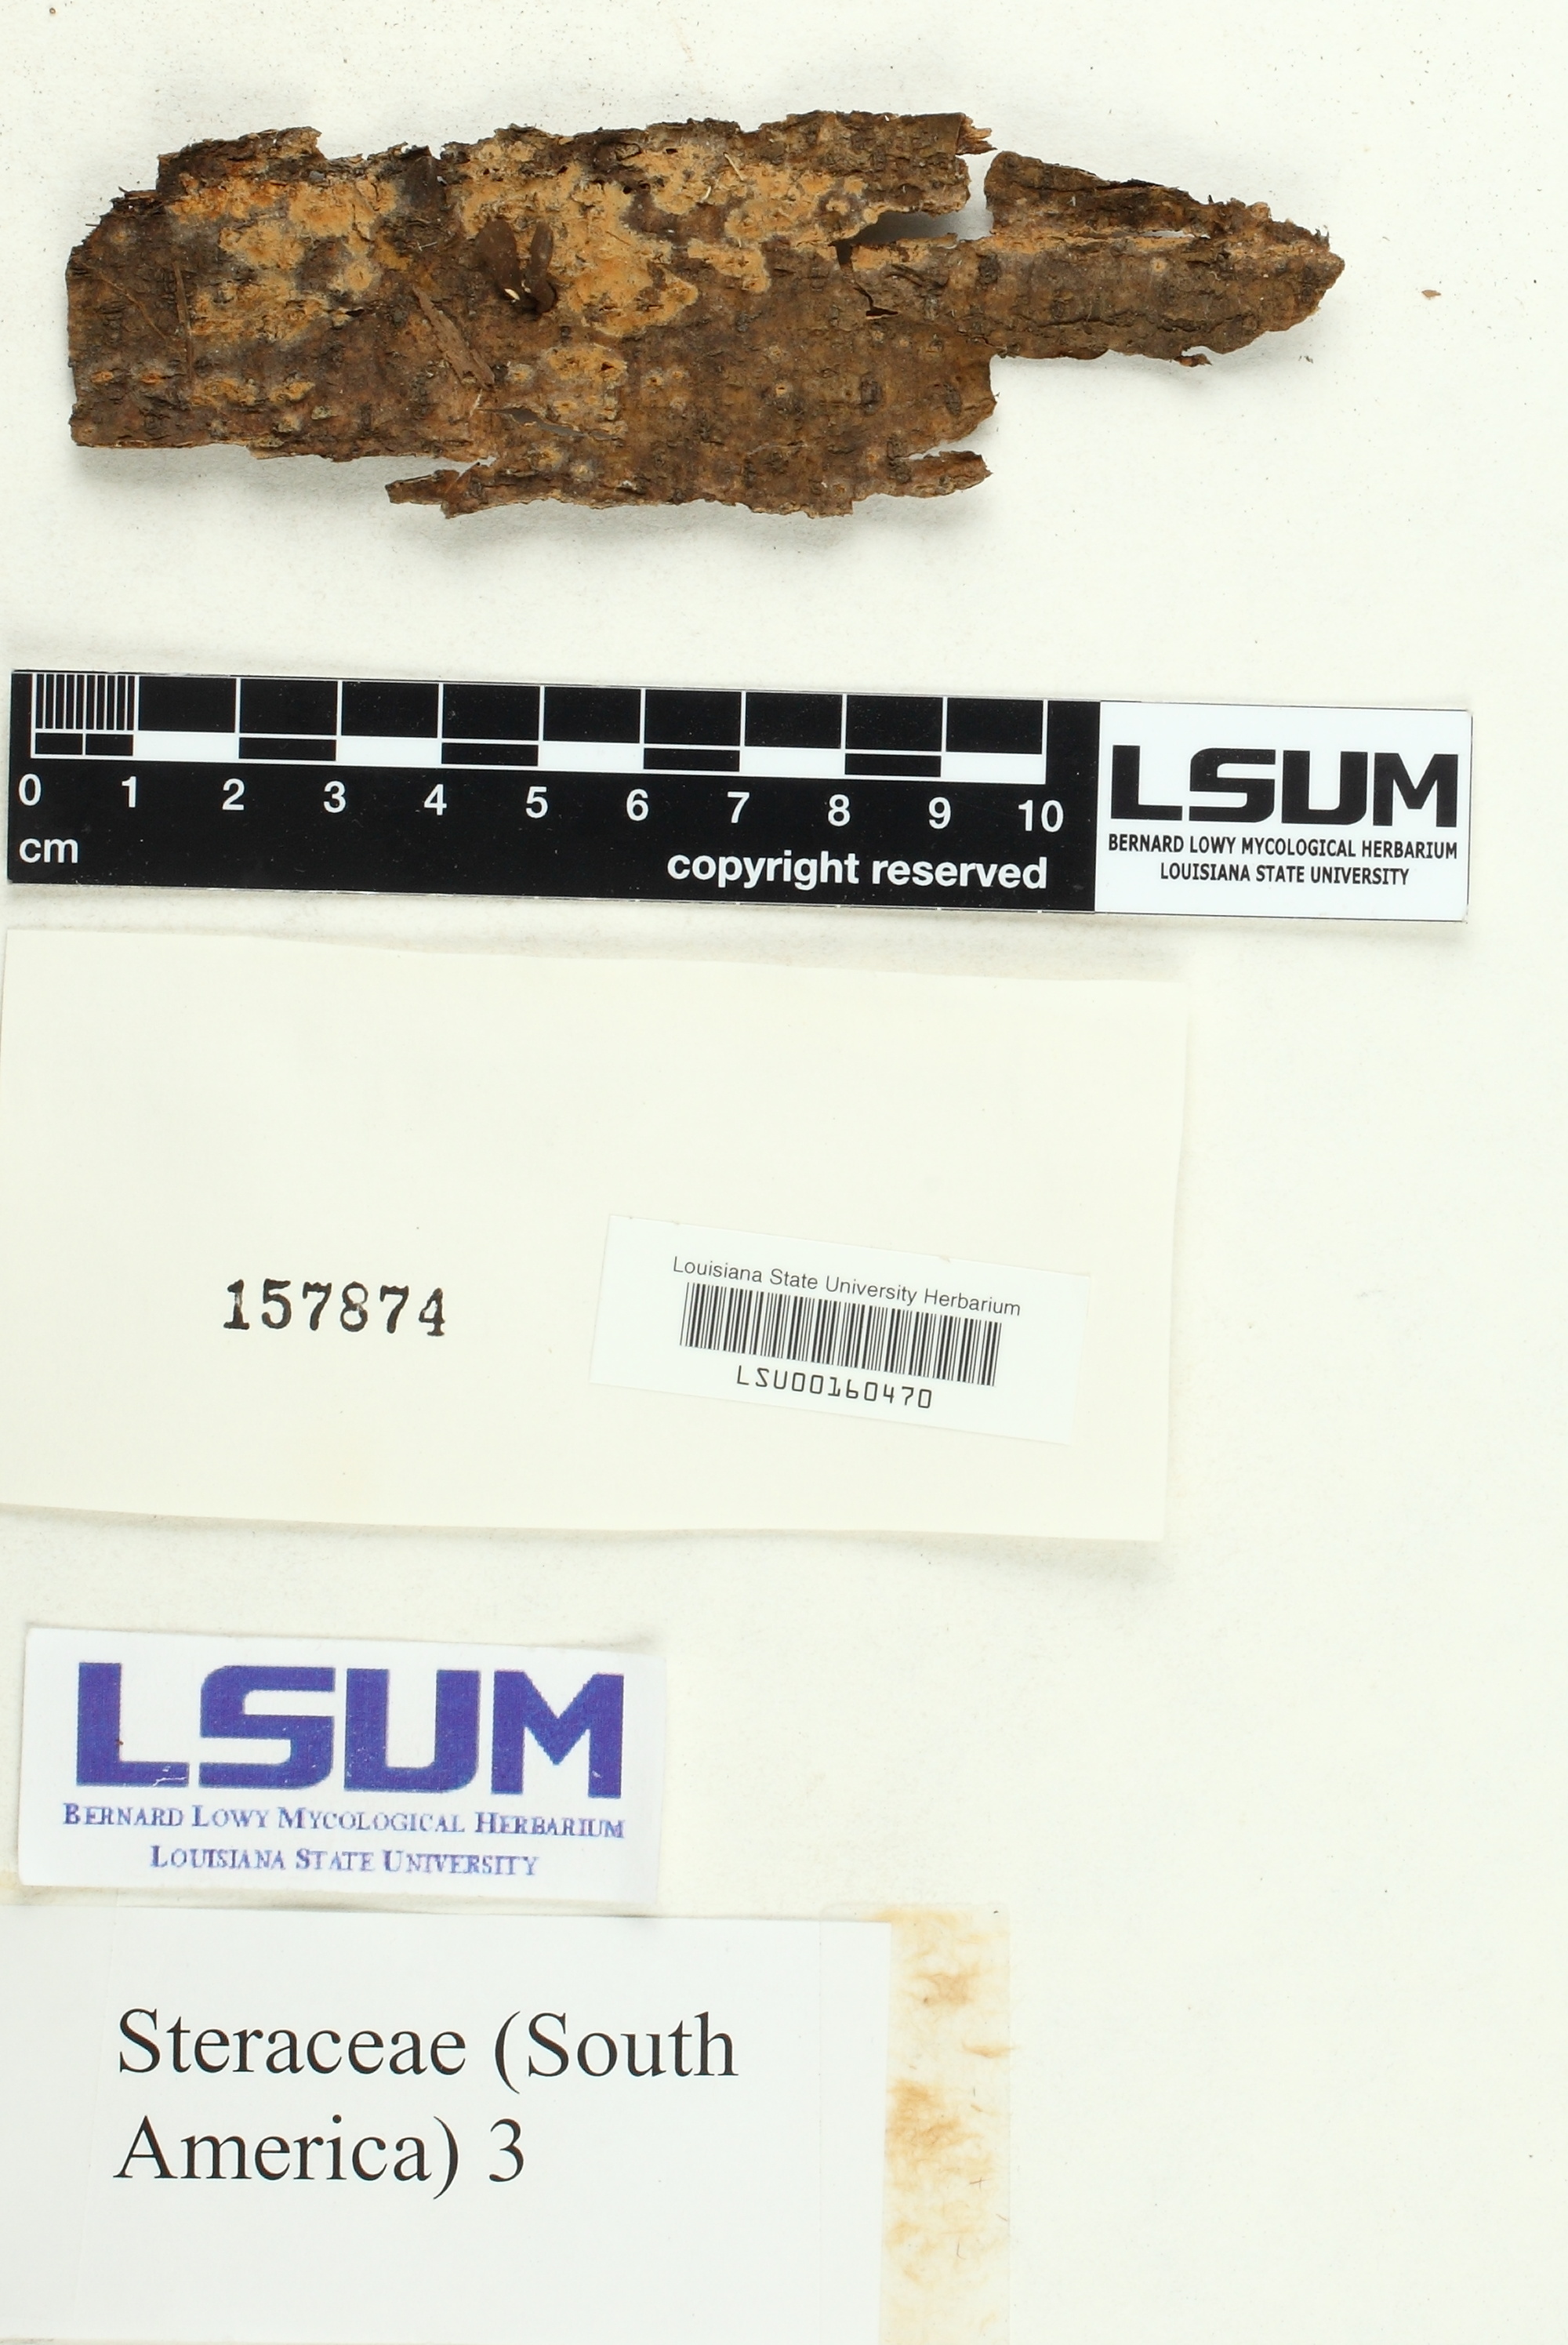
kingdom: Fungi
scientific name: Fungi
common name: Fungi
